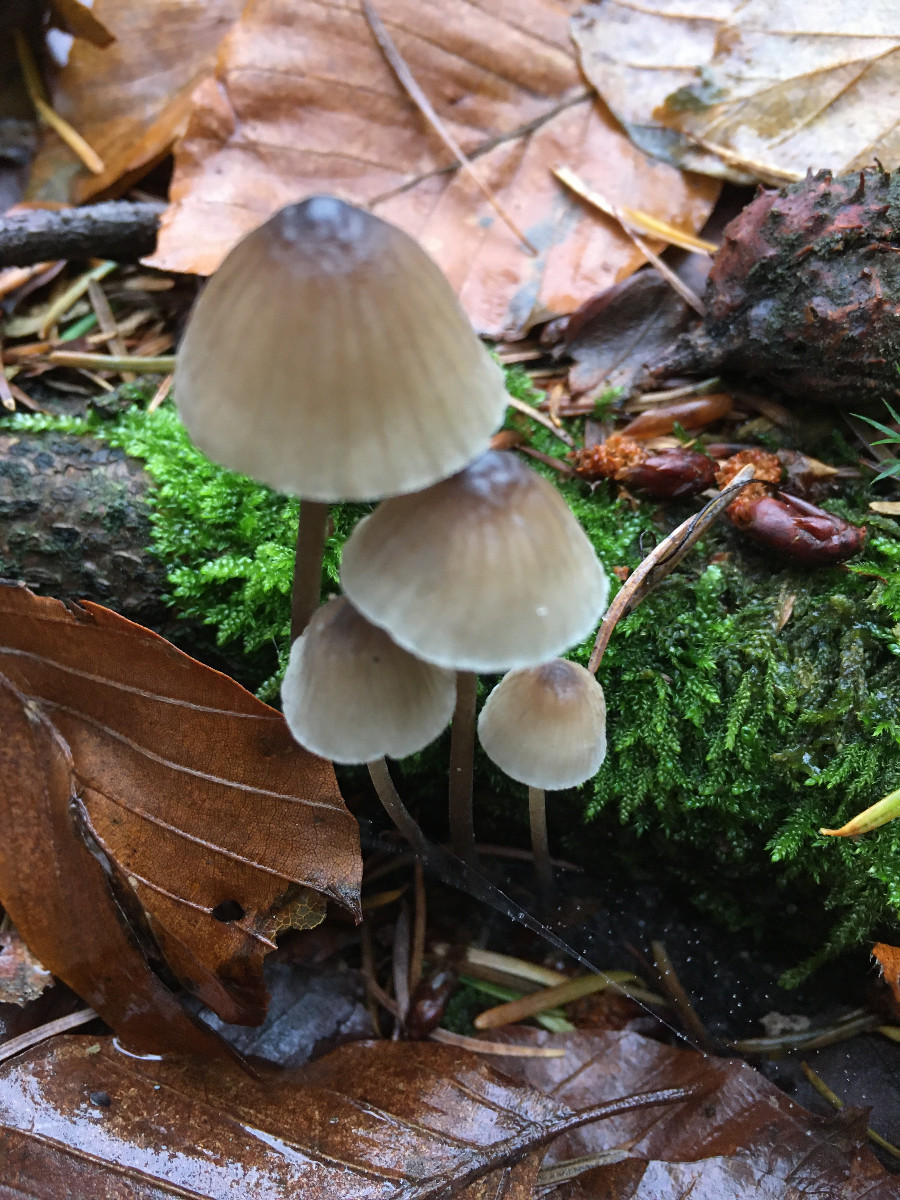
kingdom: Fungi
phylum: Basidiomycota
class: Agaricomycetes
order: Agaricales
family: Mycenaceae
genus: Mycena
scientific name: Mycena
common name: huesvamp
